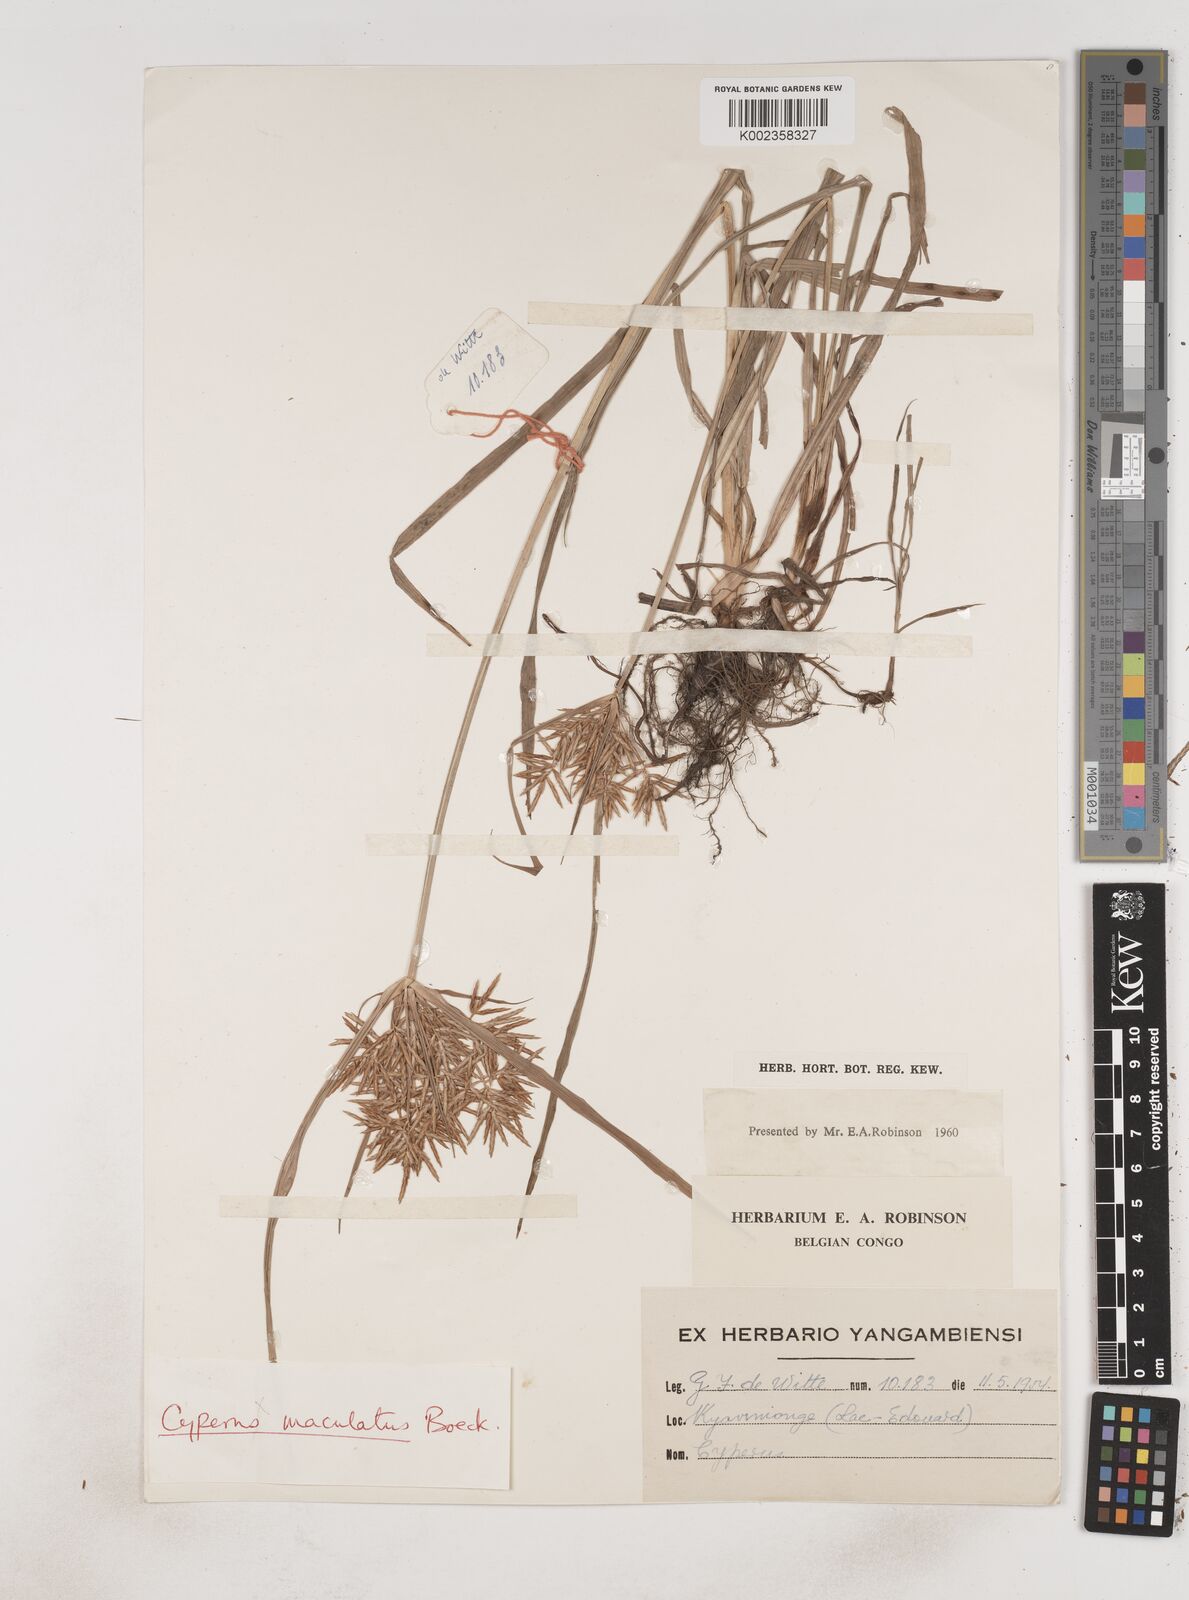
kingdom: Plantae
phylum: Tracheophyta
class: Liliopsida
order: Poales
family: Cyperaceae
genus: Cyperus
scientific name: Cyperus tuberosus
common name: Nut grass
